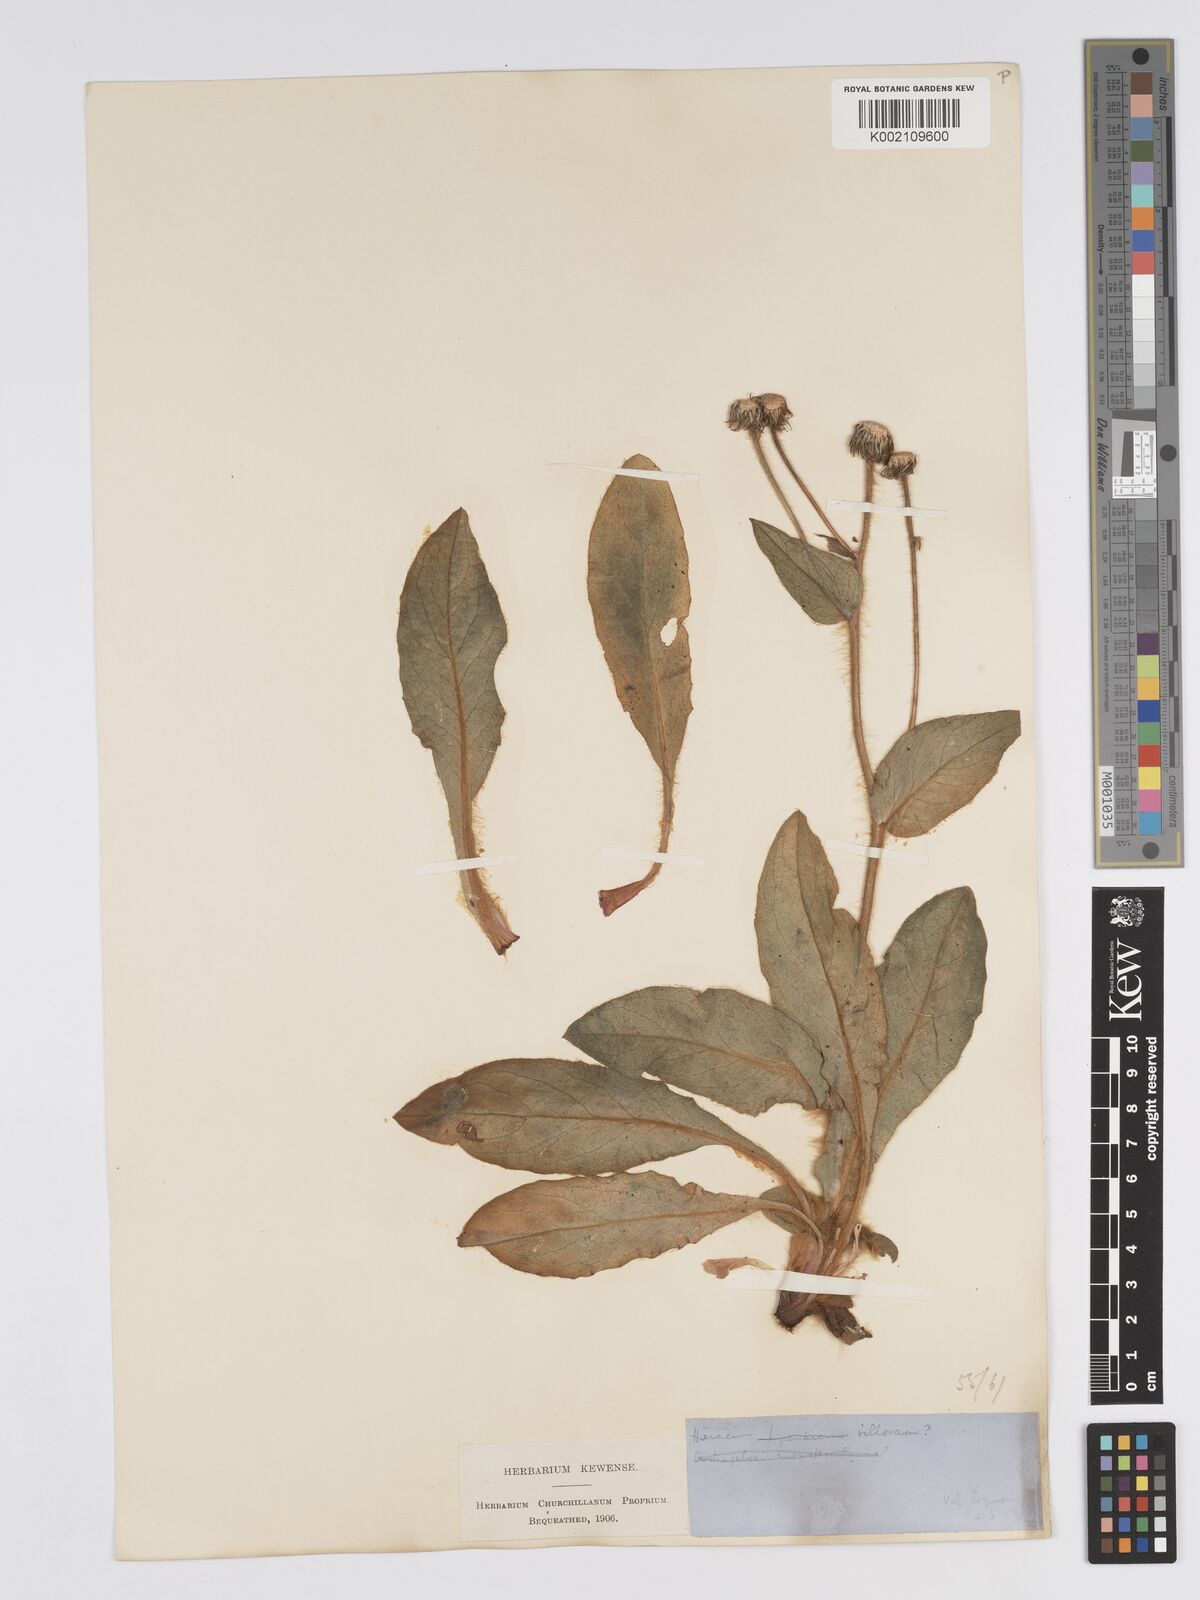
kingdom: Plantae
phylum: Tracheophyta
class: Magnoliopsida
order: Asterales
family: Asteraceae
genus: Hieracium
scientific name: Hieracium compositum
